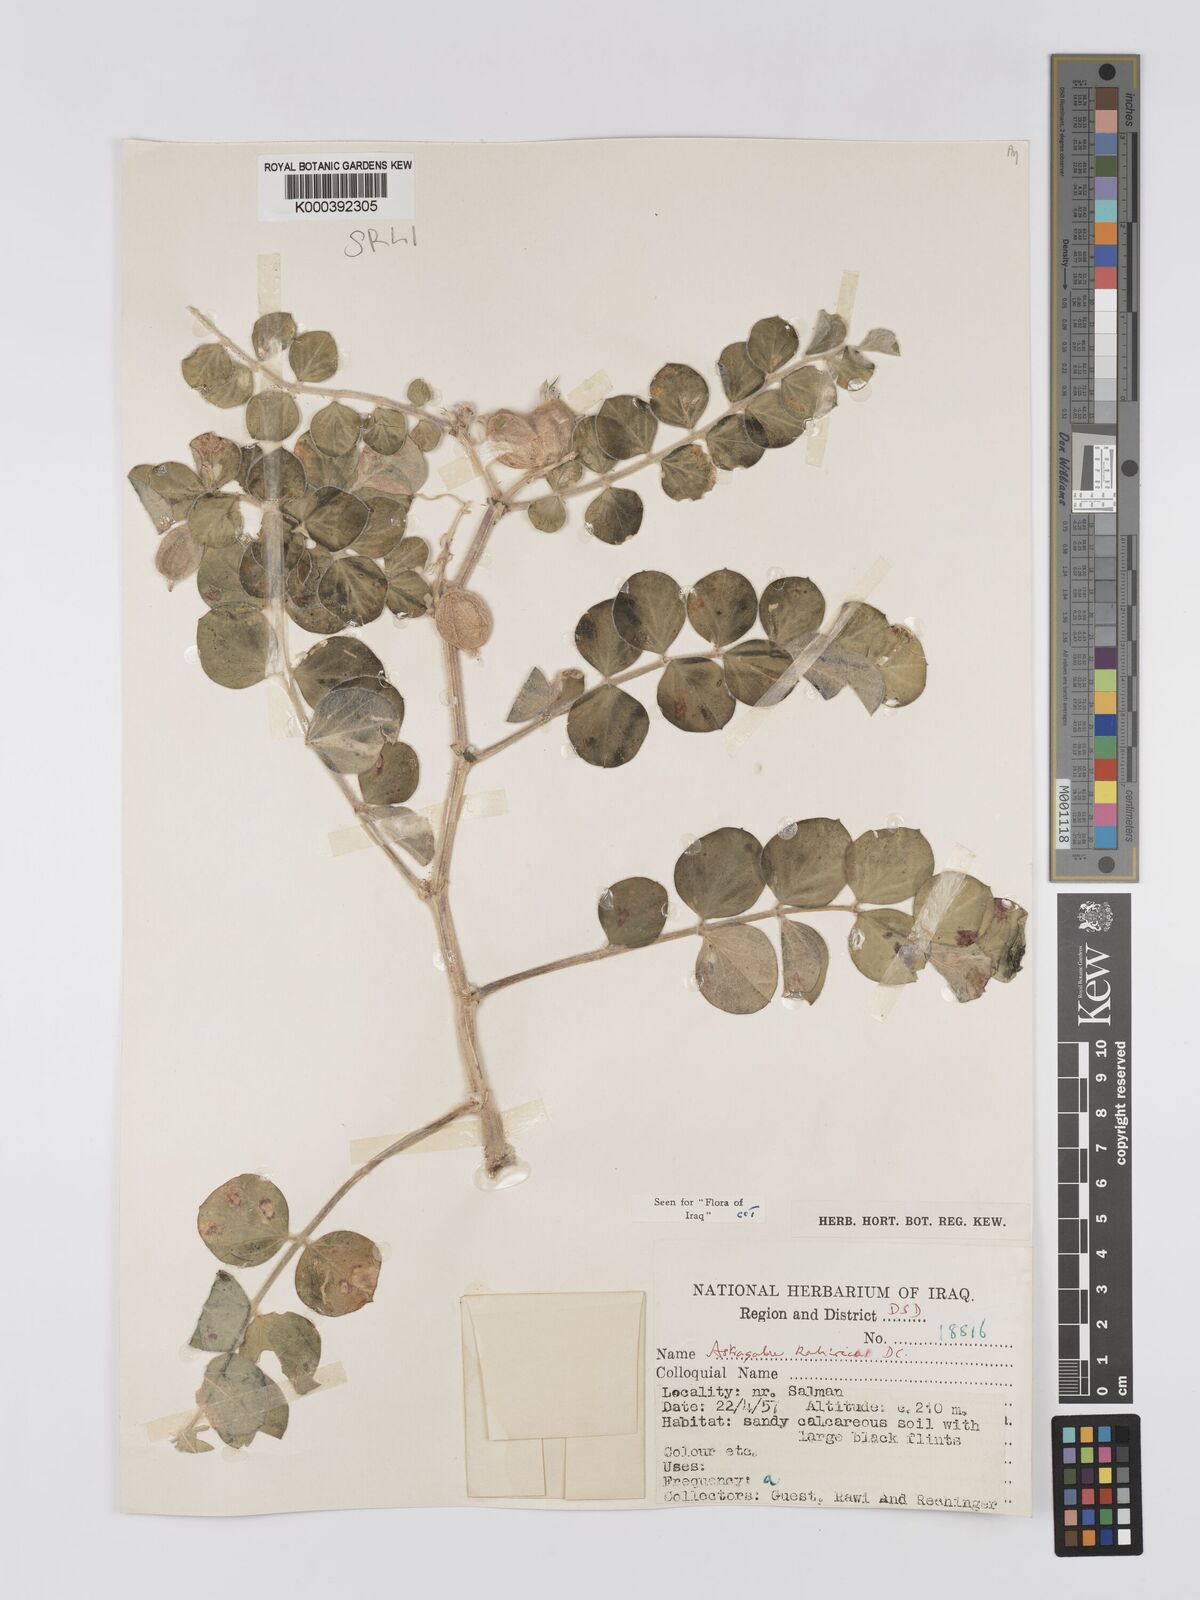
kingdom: Plantae
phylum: Tracheophyta
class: Magnoliopsida
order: Fabales
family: Fabaceae
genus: Astragalus
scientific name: Astragalus kahiricus
